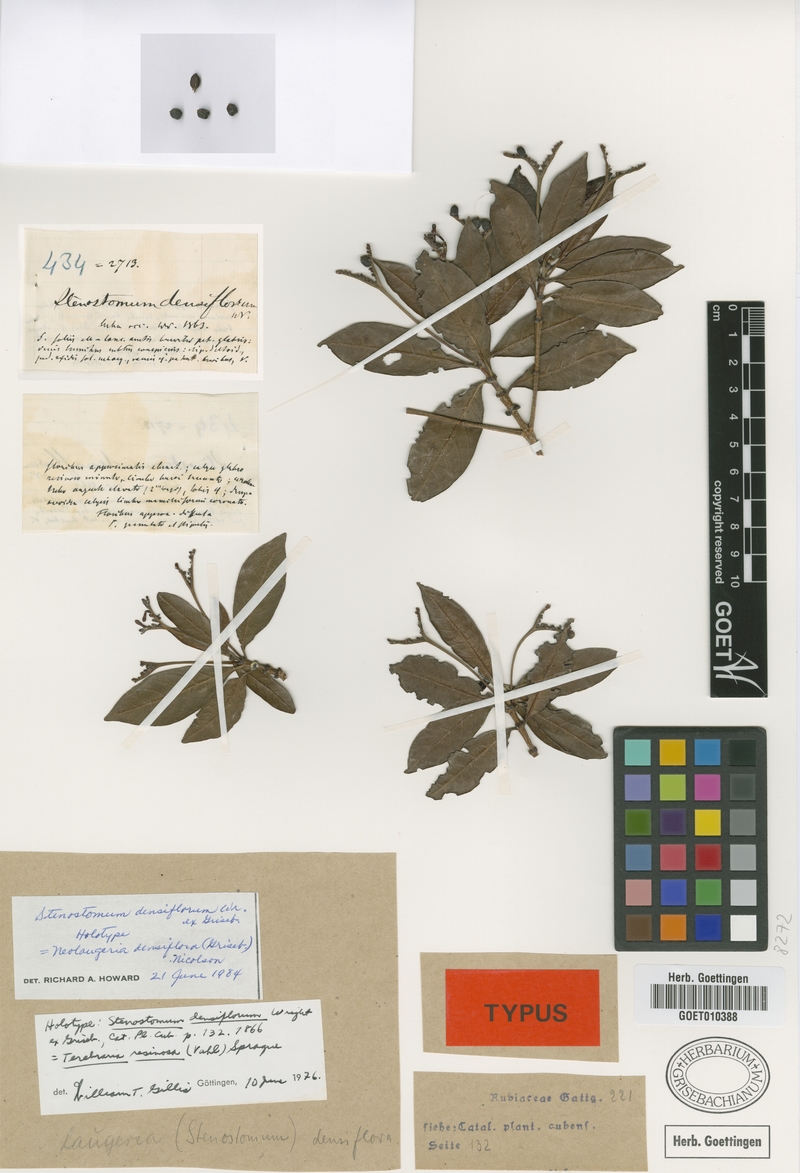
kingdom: Plantae
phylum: Tracheophyta
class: Magnoliopsida
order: Gentianales
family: Rubiaceae
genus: Stenostomum
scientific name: Stenostomum densiflorum
